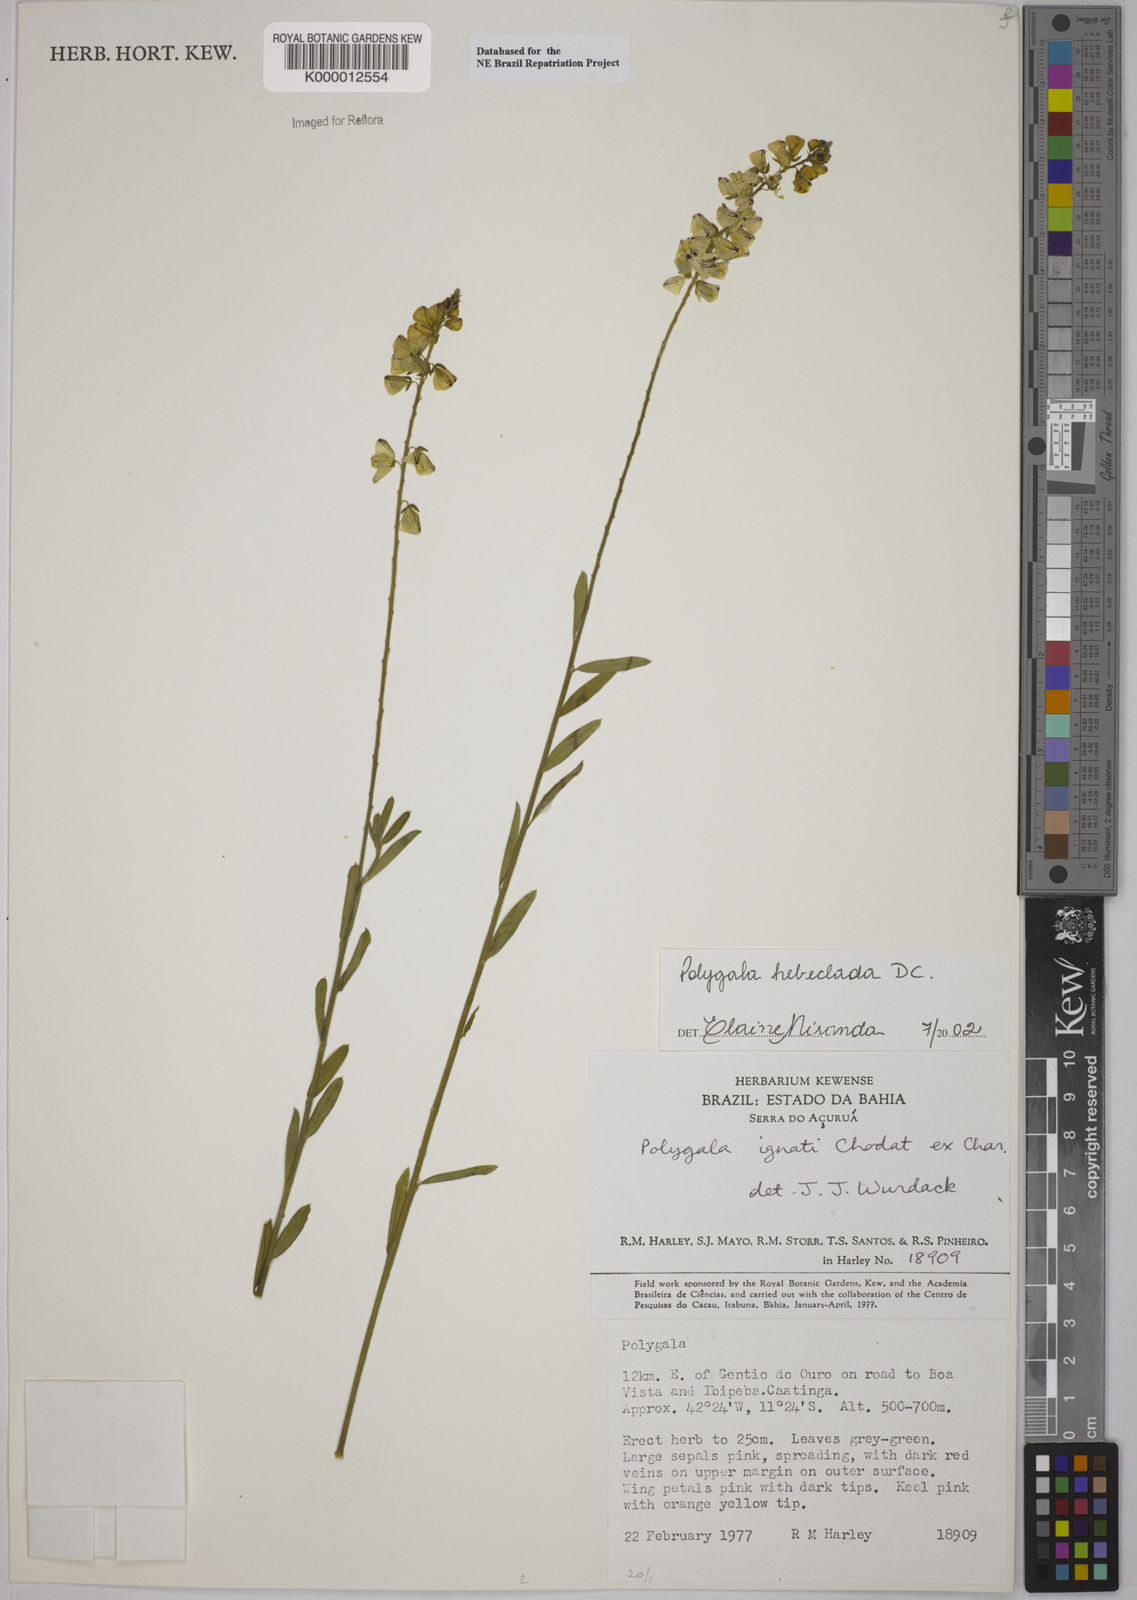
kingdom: Plantae
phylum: Tracheophyta
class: Magnoliopsida
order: Fabales
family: Polygalaceae
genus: Asemeia
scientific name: Asemeia hebeclada
